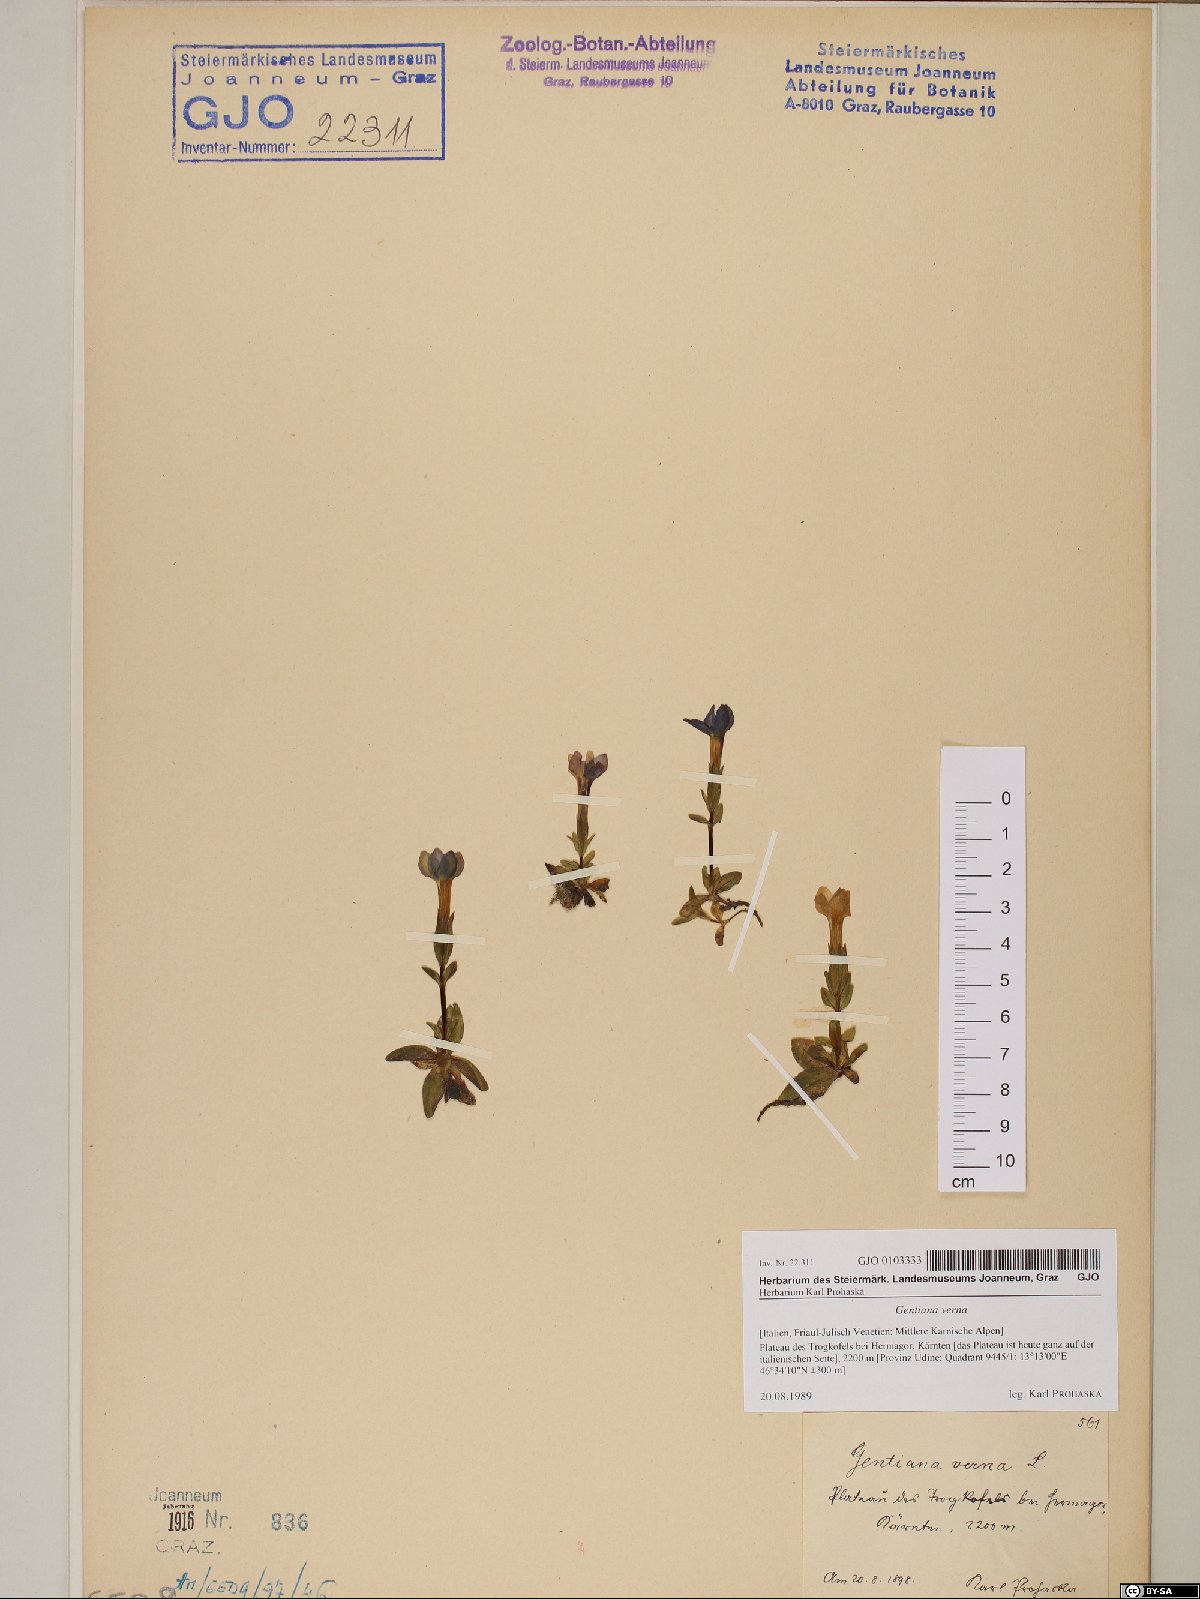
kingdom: Plantae
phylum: Tracheophyta
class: Magnoliopsida
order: Gentianales
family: Gentianaceae
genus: Gentiana
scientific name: Gentiana verna
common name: Spring gentian
